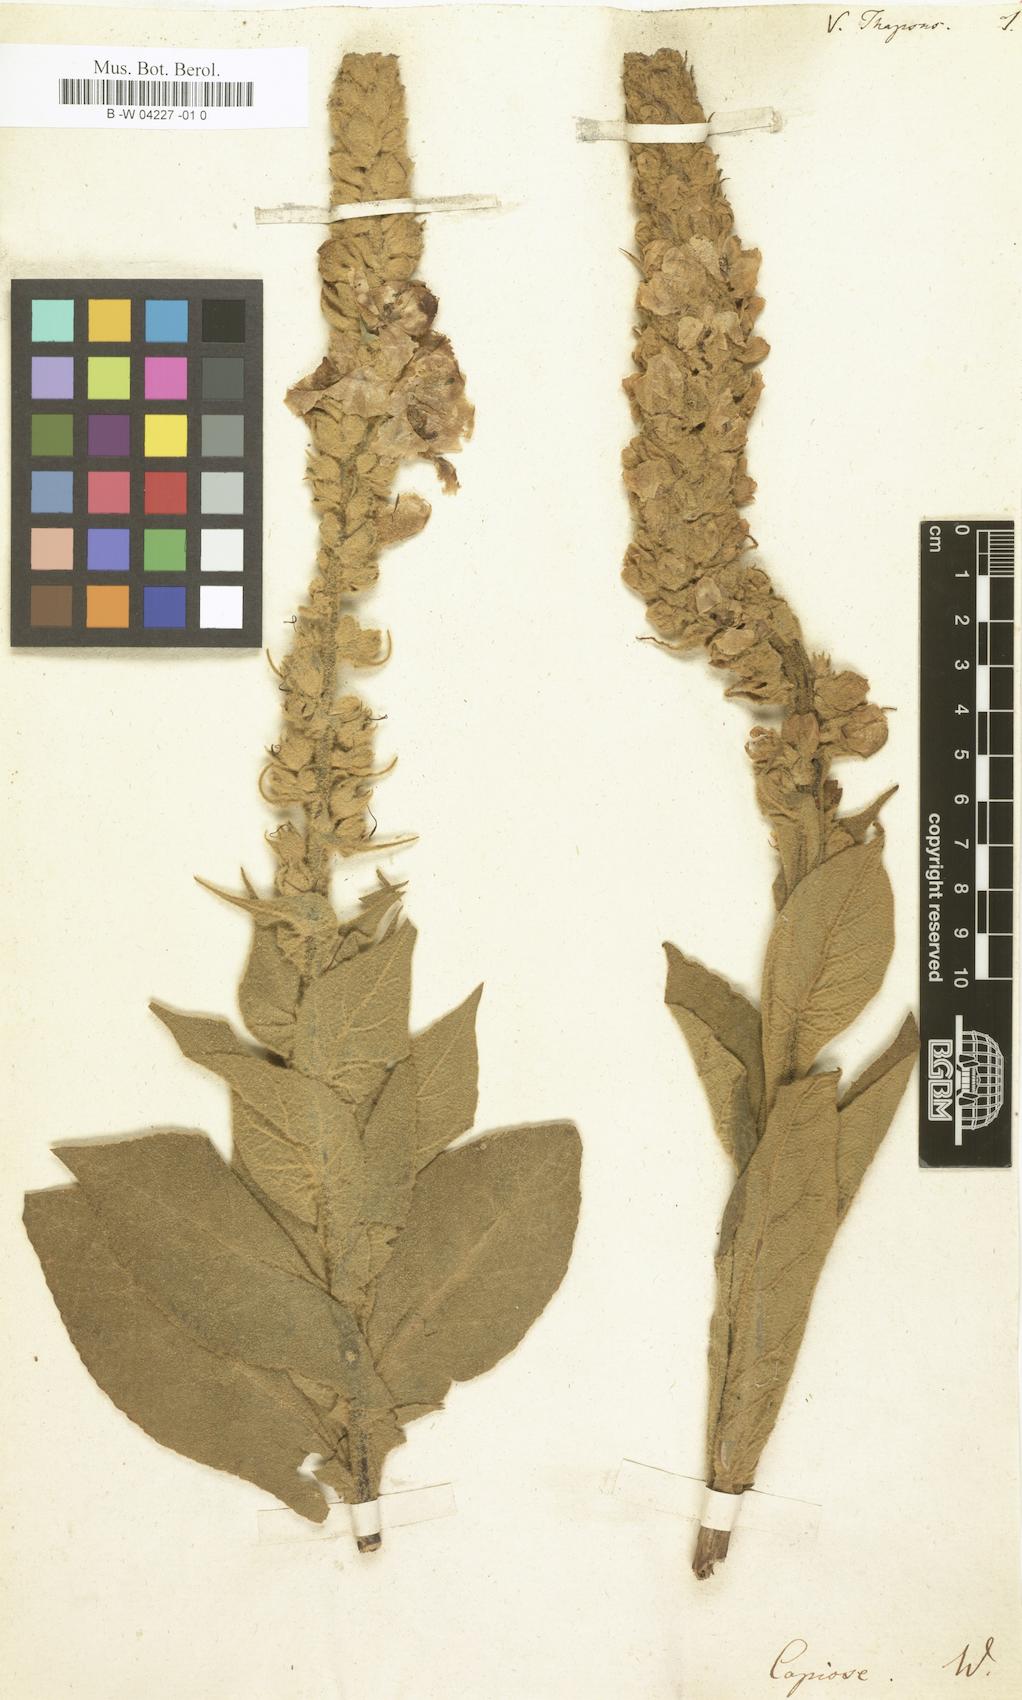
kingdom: Plantae
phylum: Tracheophyta
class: Magnoliopsida
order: Lamiales
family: Scrophulariaceae
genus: Verbascum
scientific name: Verbascum thapsus
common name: Common mullein
